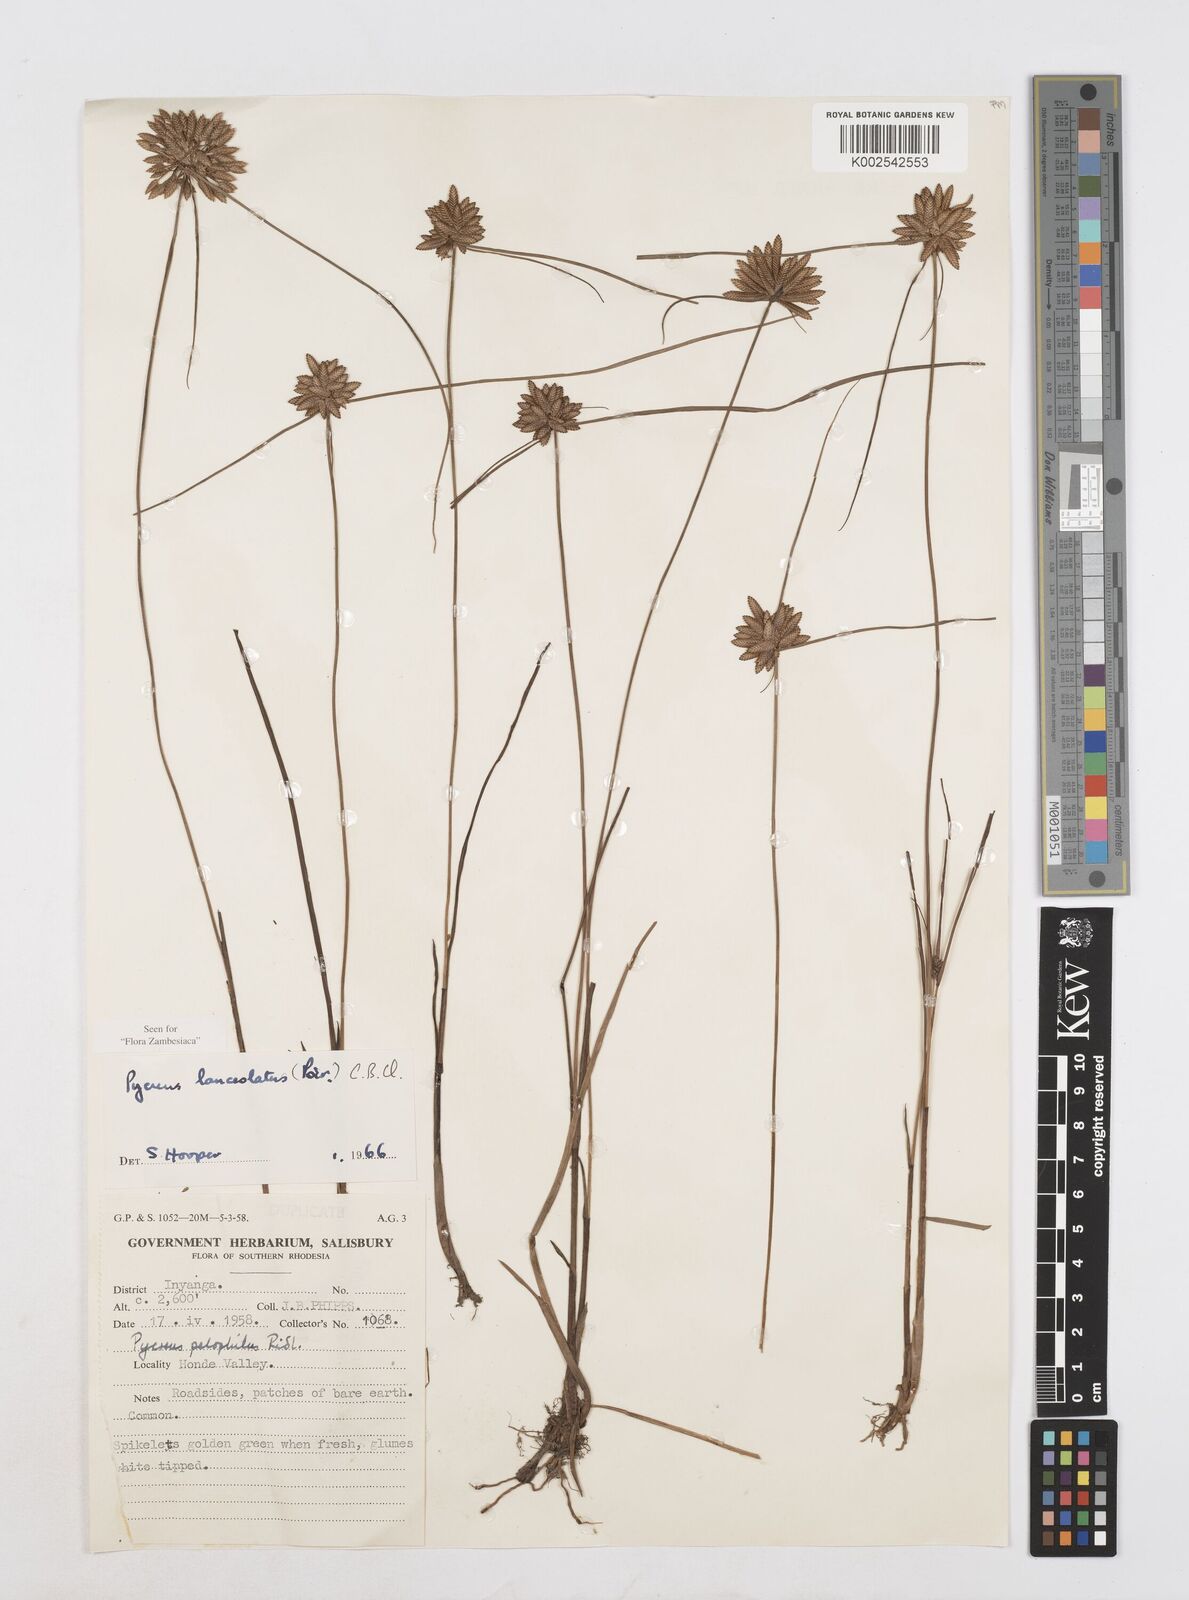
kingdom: Plantae
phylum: Tracheophyta
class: Liliopsida
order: Poales
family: Cyperaceae
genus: Cyperus
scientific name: Cyperus lanceolatus
